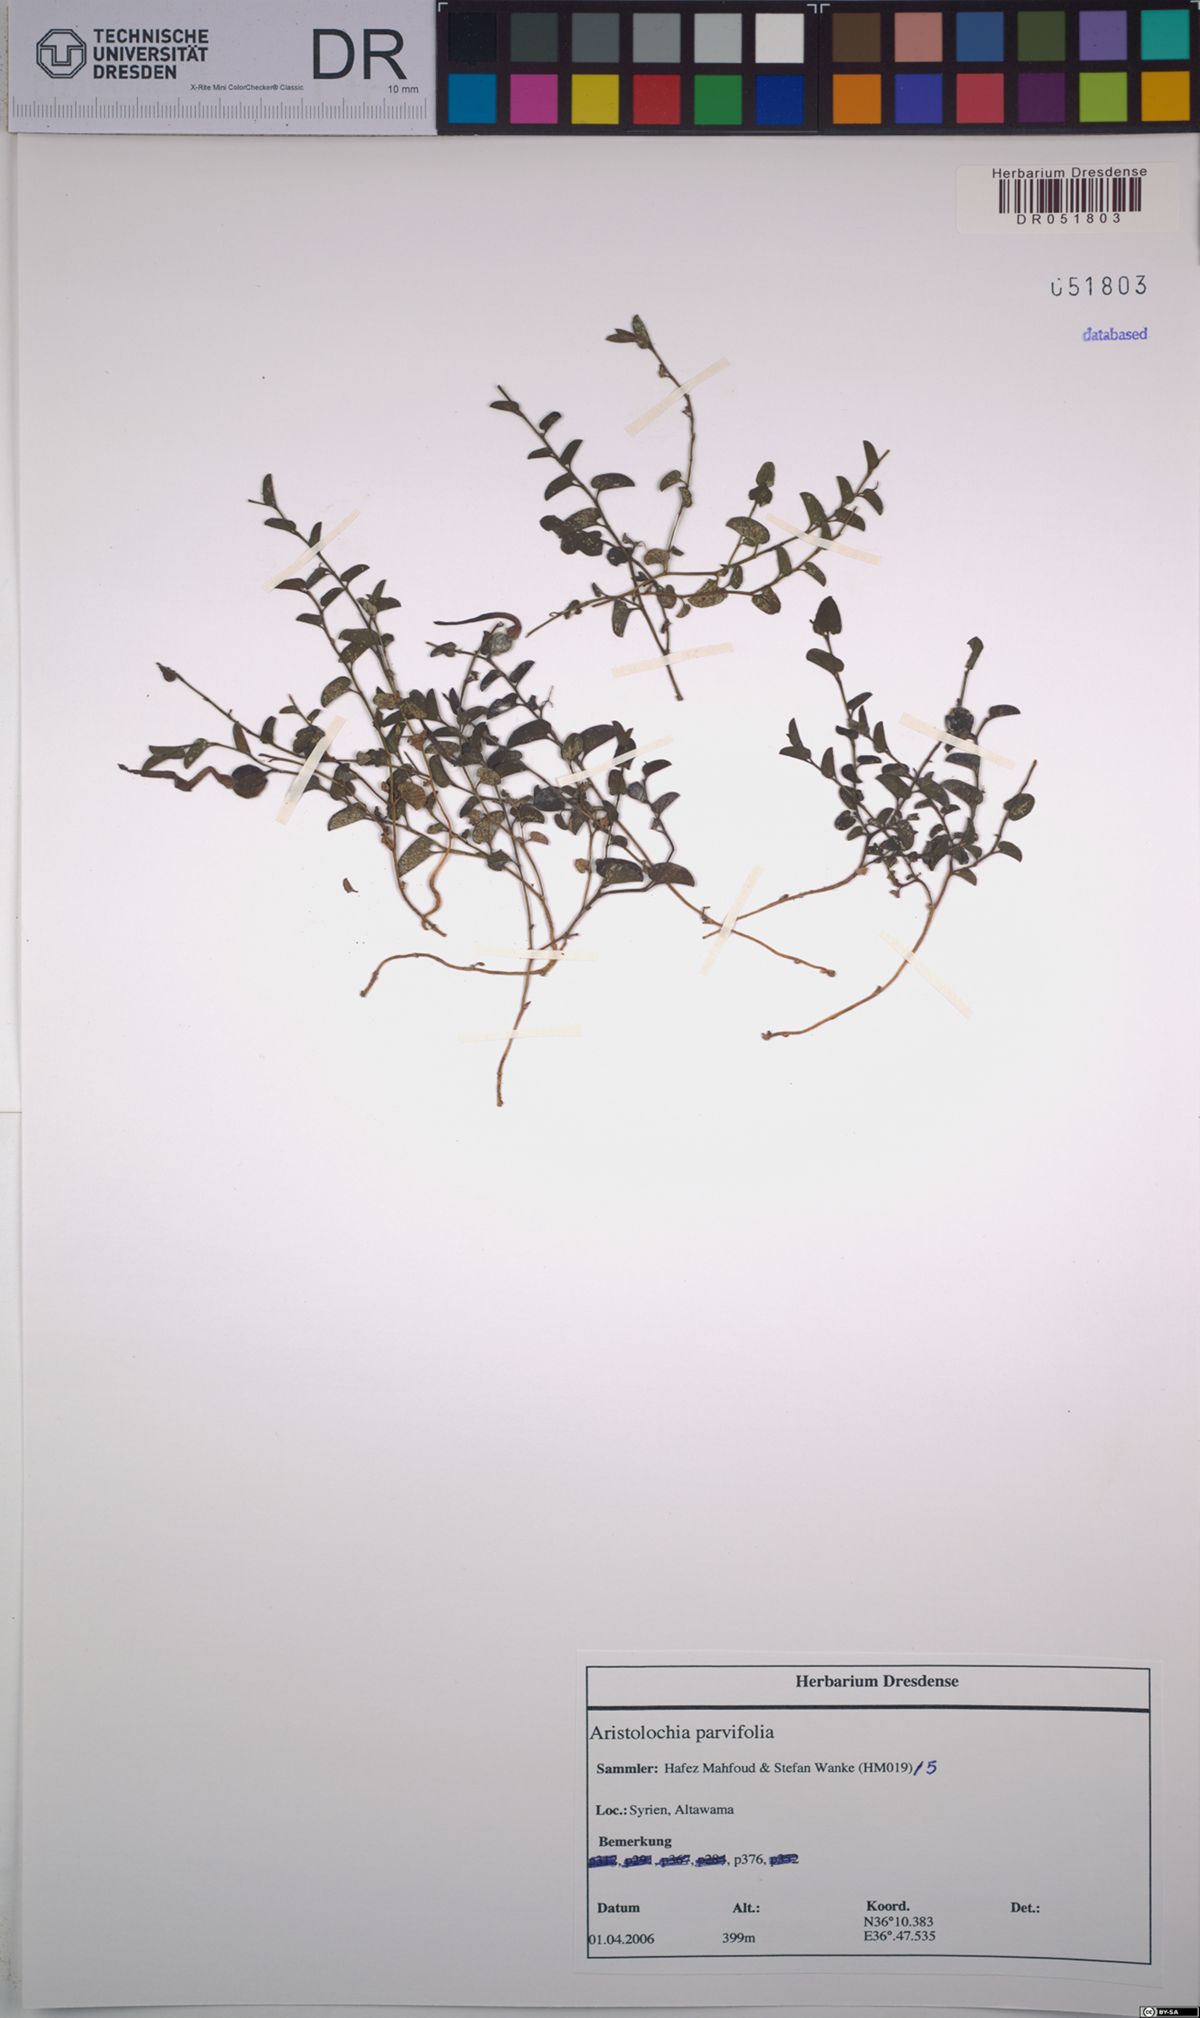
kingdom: Plantae
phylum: Tracheophyta
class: Magnoliopsida
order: Piperales
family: Aristolochiaceae
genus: Aristolochia
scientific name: Aristolochia parvifolia
